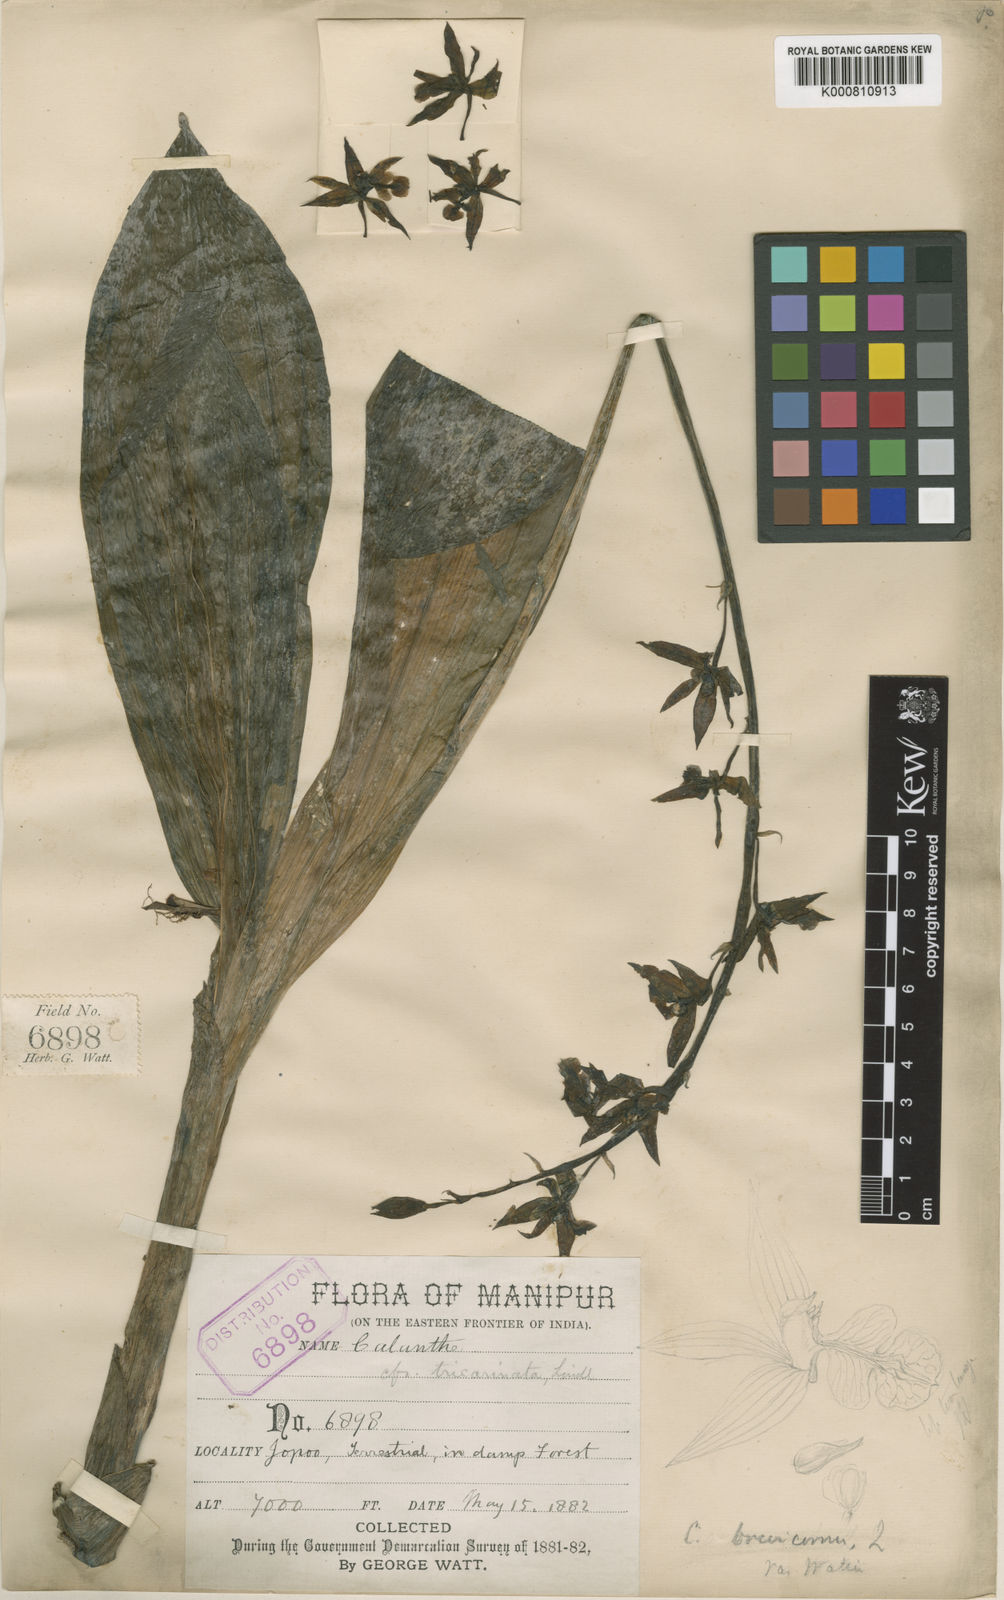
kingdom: Plantae
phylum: Tracheophyta
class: Liliopsida
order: Asparagales
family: Orchidaceae
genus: Calanthe
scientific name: Calanthe brevicornu
